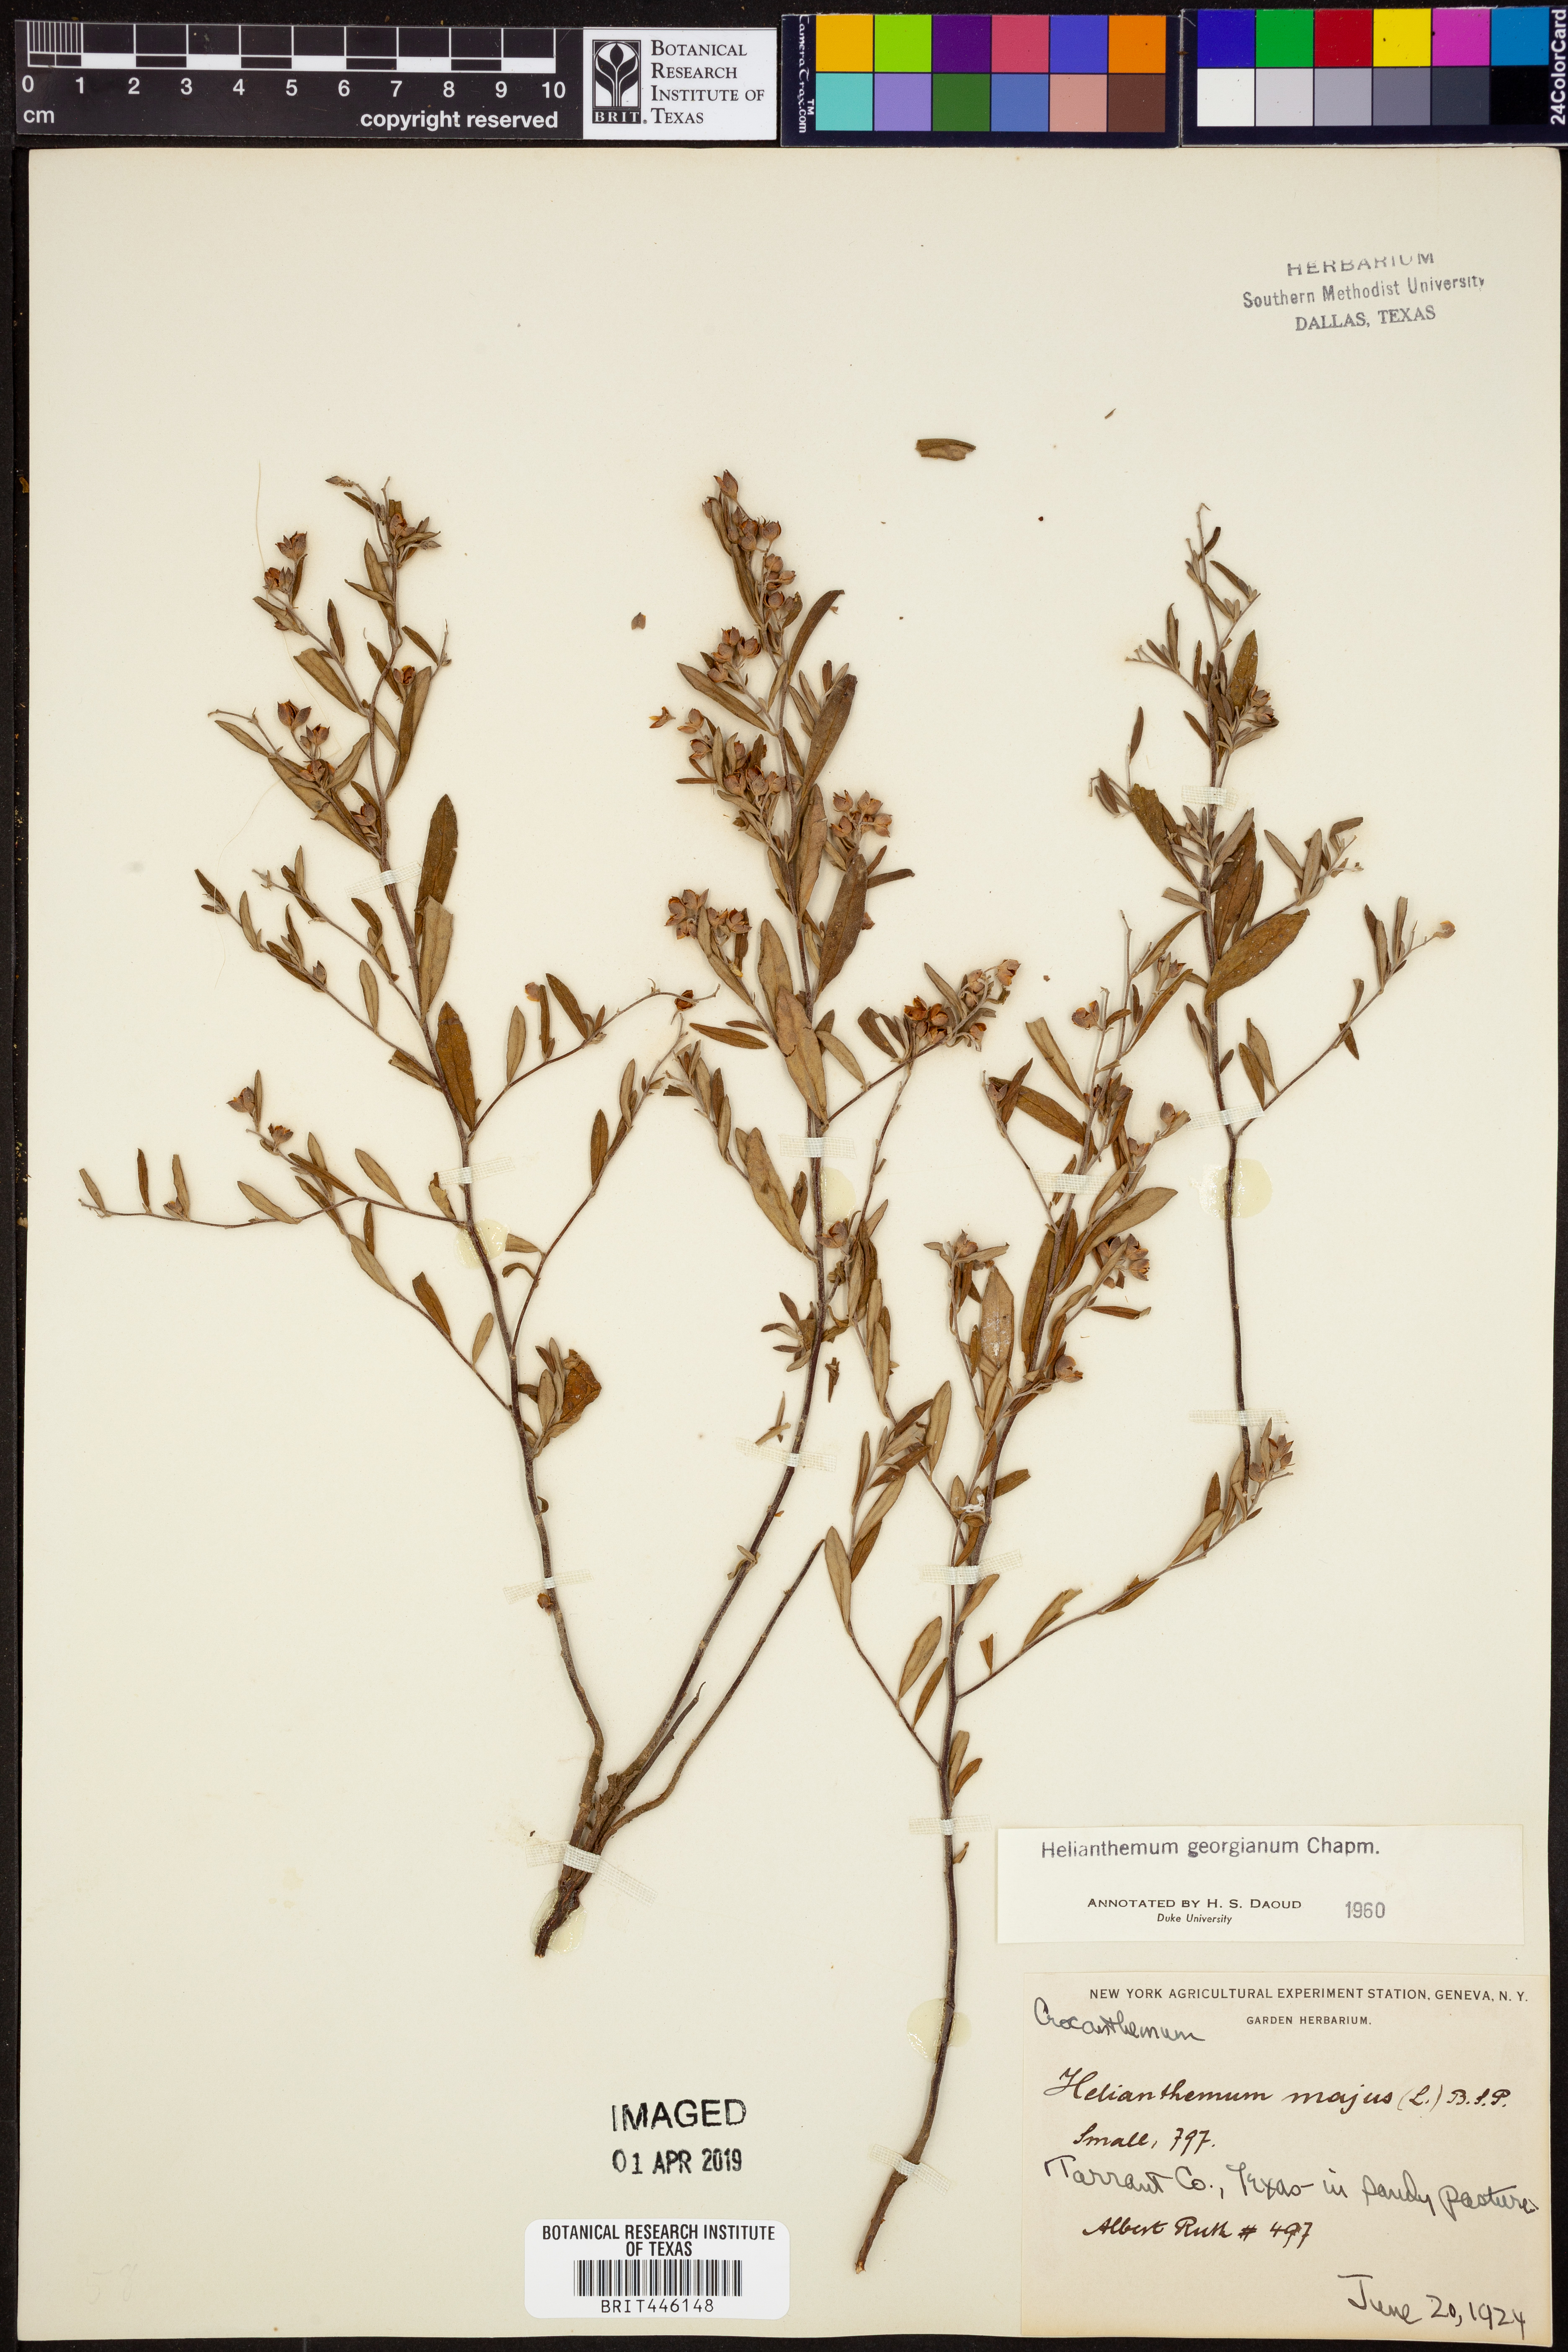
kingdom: Plantae
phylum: Tracheophyta
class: Magnoliopsida
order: Malvales
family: Cistaceae
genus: Crocanthemum
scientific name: Crocanthemum georgianum
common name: Georgia frostweed
